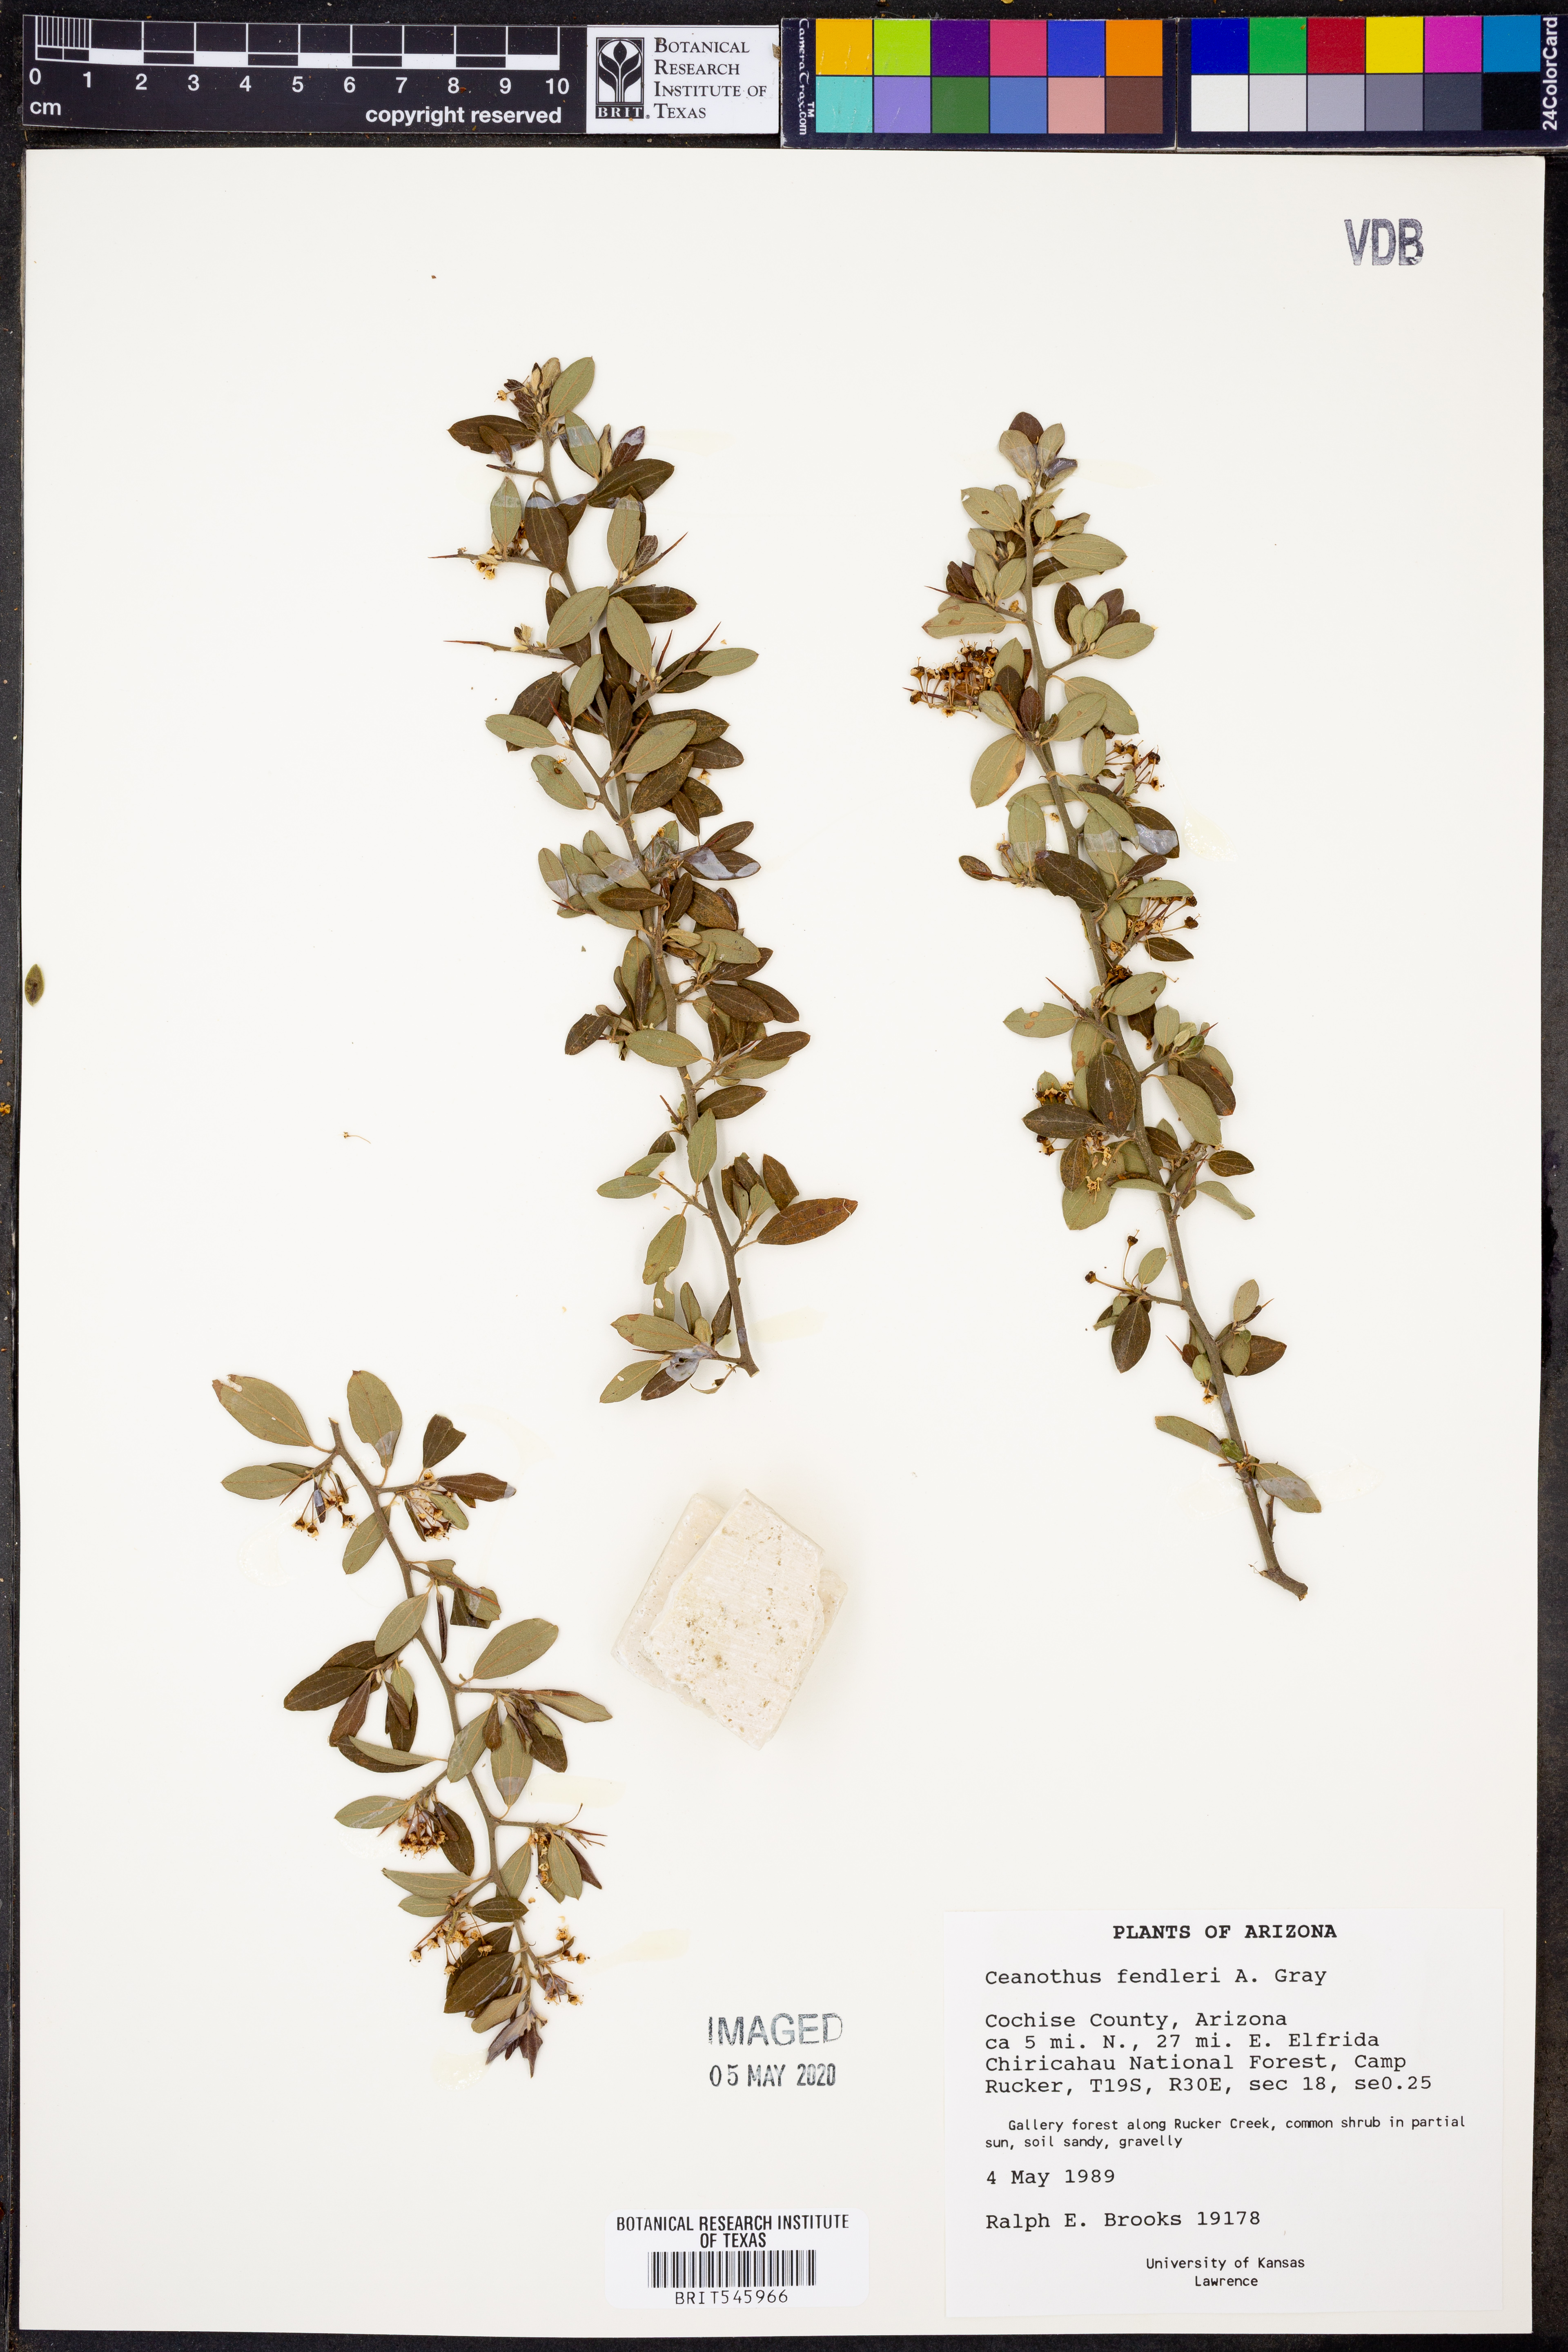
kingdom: Plantae
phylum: Tracheophyta
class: Magnoliopsida
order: Rosales
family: Rhamnaceae
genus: Ceanothus
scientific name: Ceanothus fendleri
